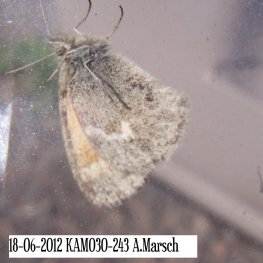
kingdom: Animalia
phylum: Arthropoda
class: Insecta
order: Lepidoptera
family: Nymphalidae
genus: Coenonympha
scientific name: Coenonympha tullia
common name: Large Heath
